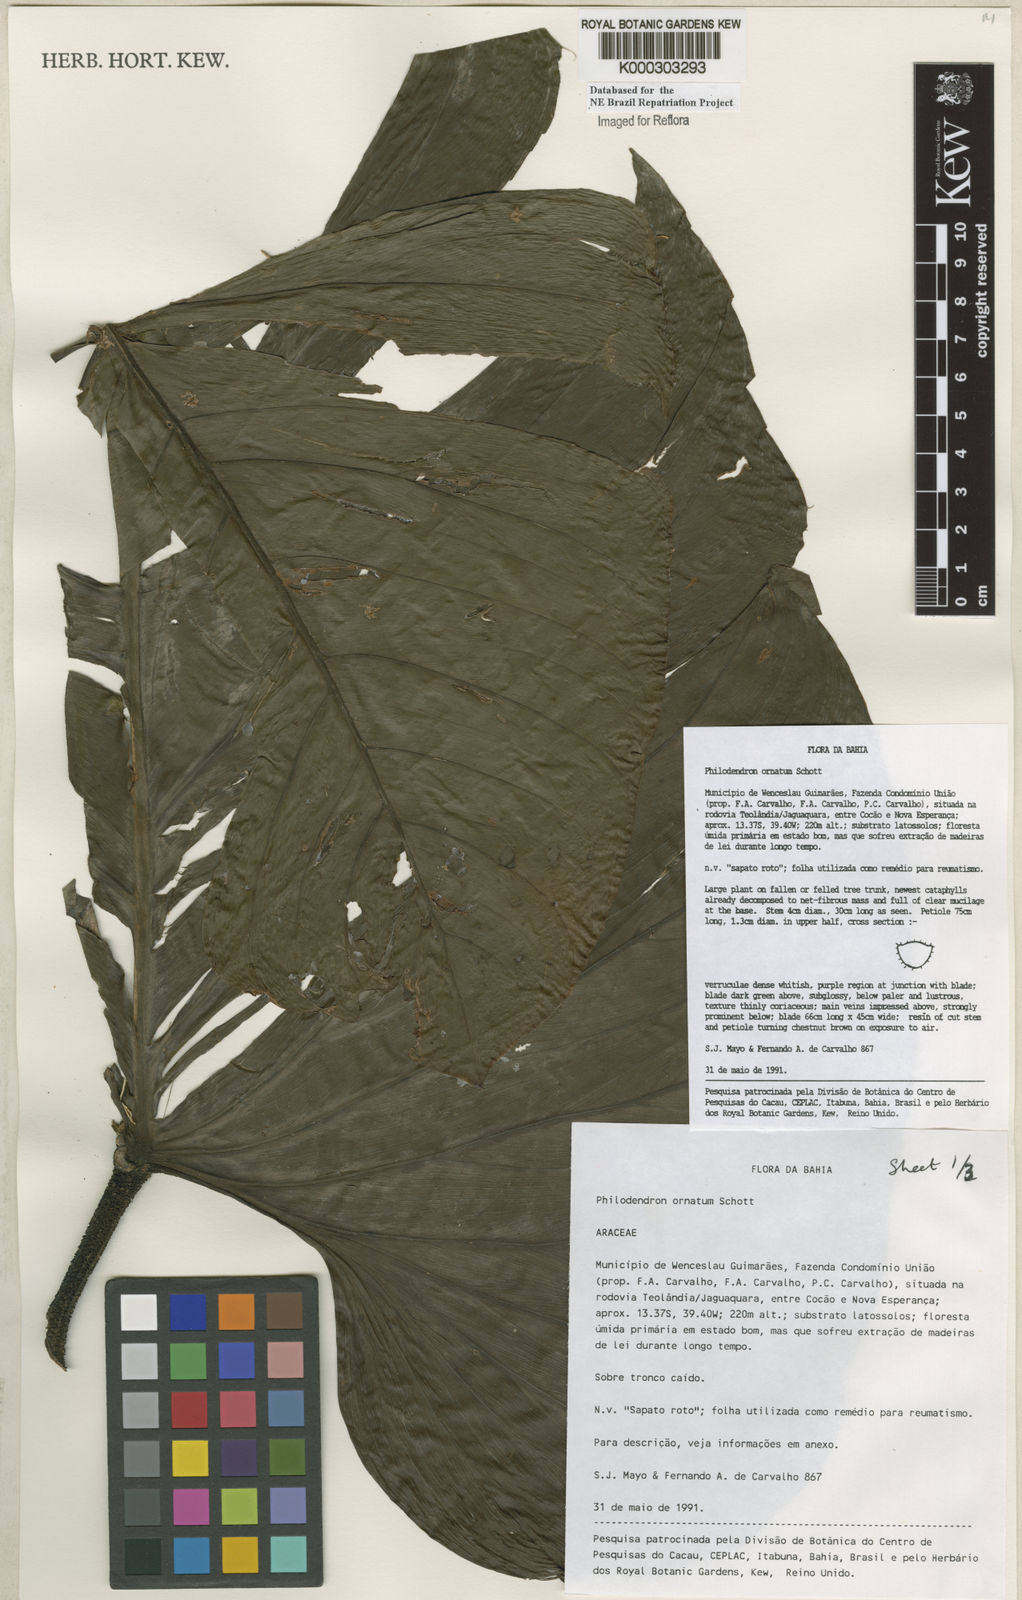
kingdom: Plantae
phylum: Tracheophyta
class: Liliopsida
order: Alismatales
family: Araceae
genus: Philodendron
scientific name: Philodendron ornatum
